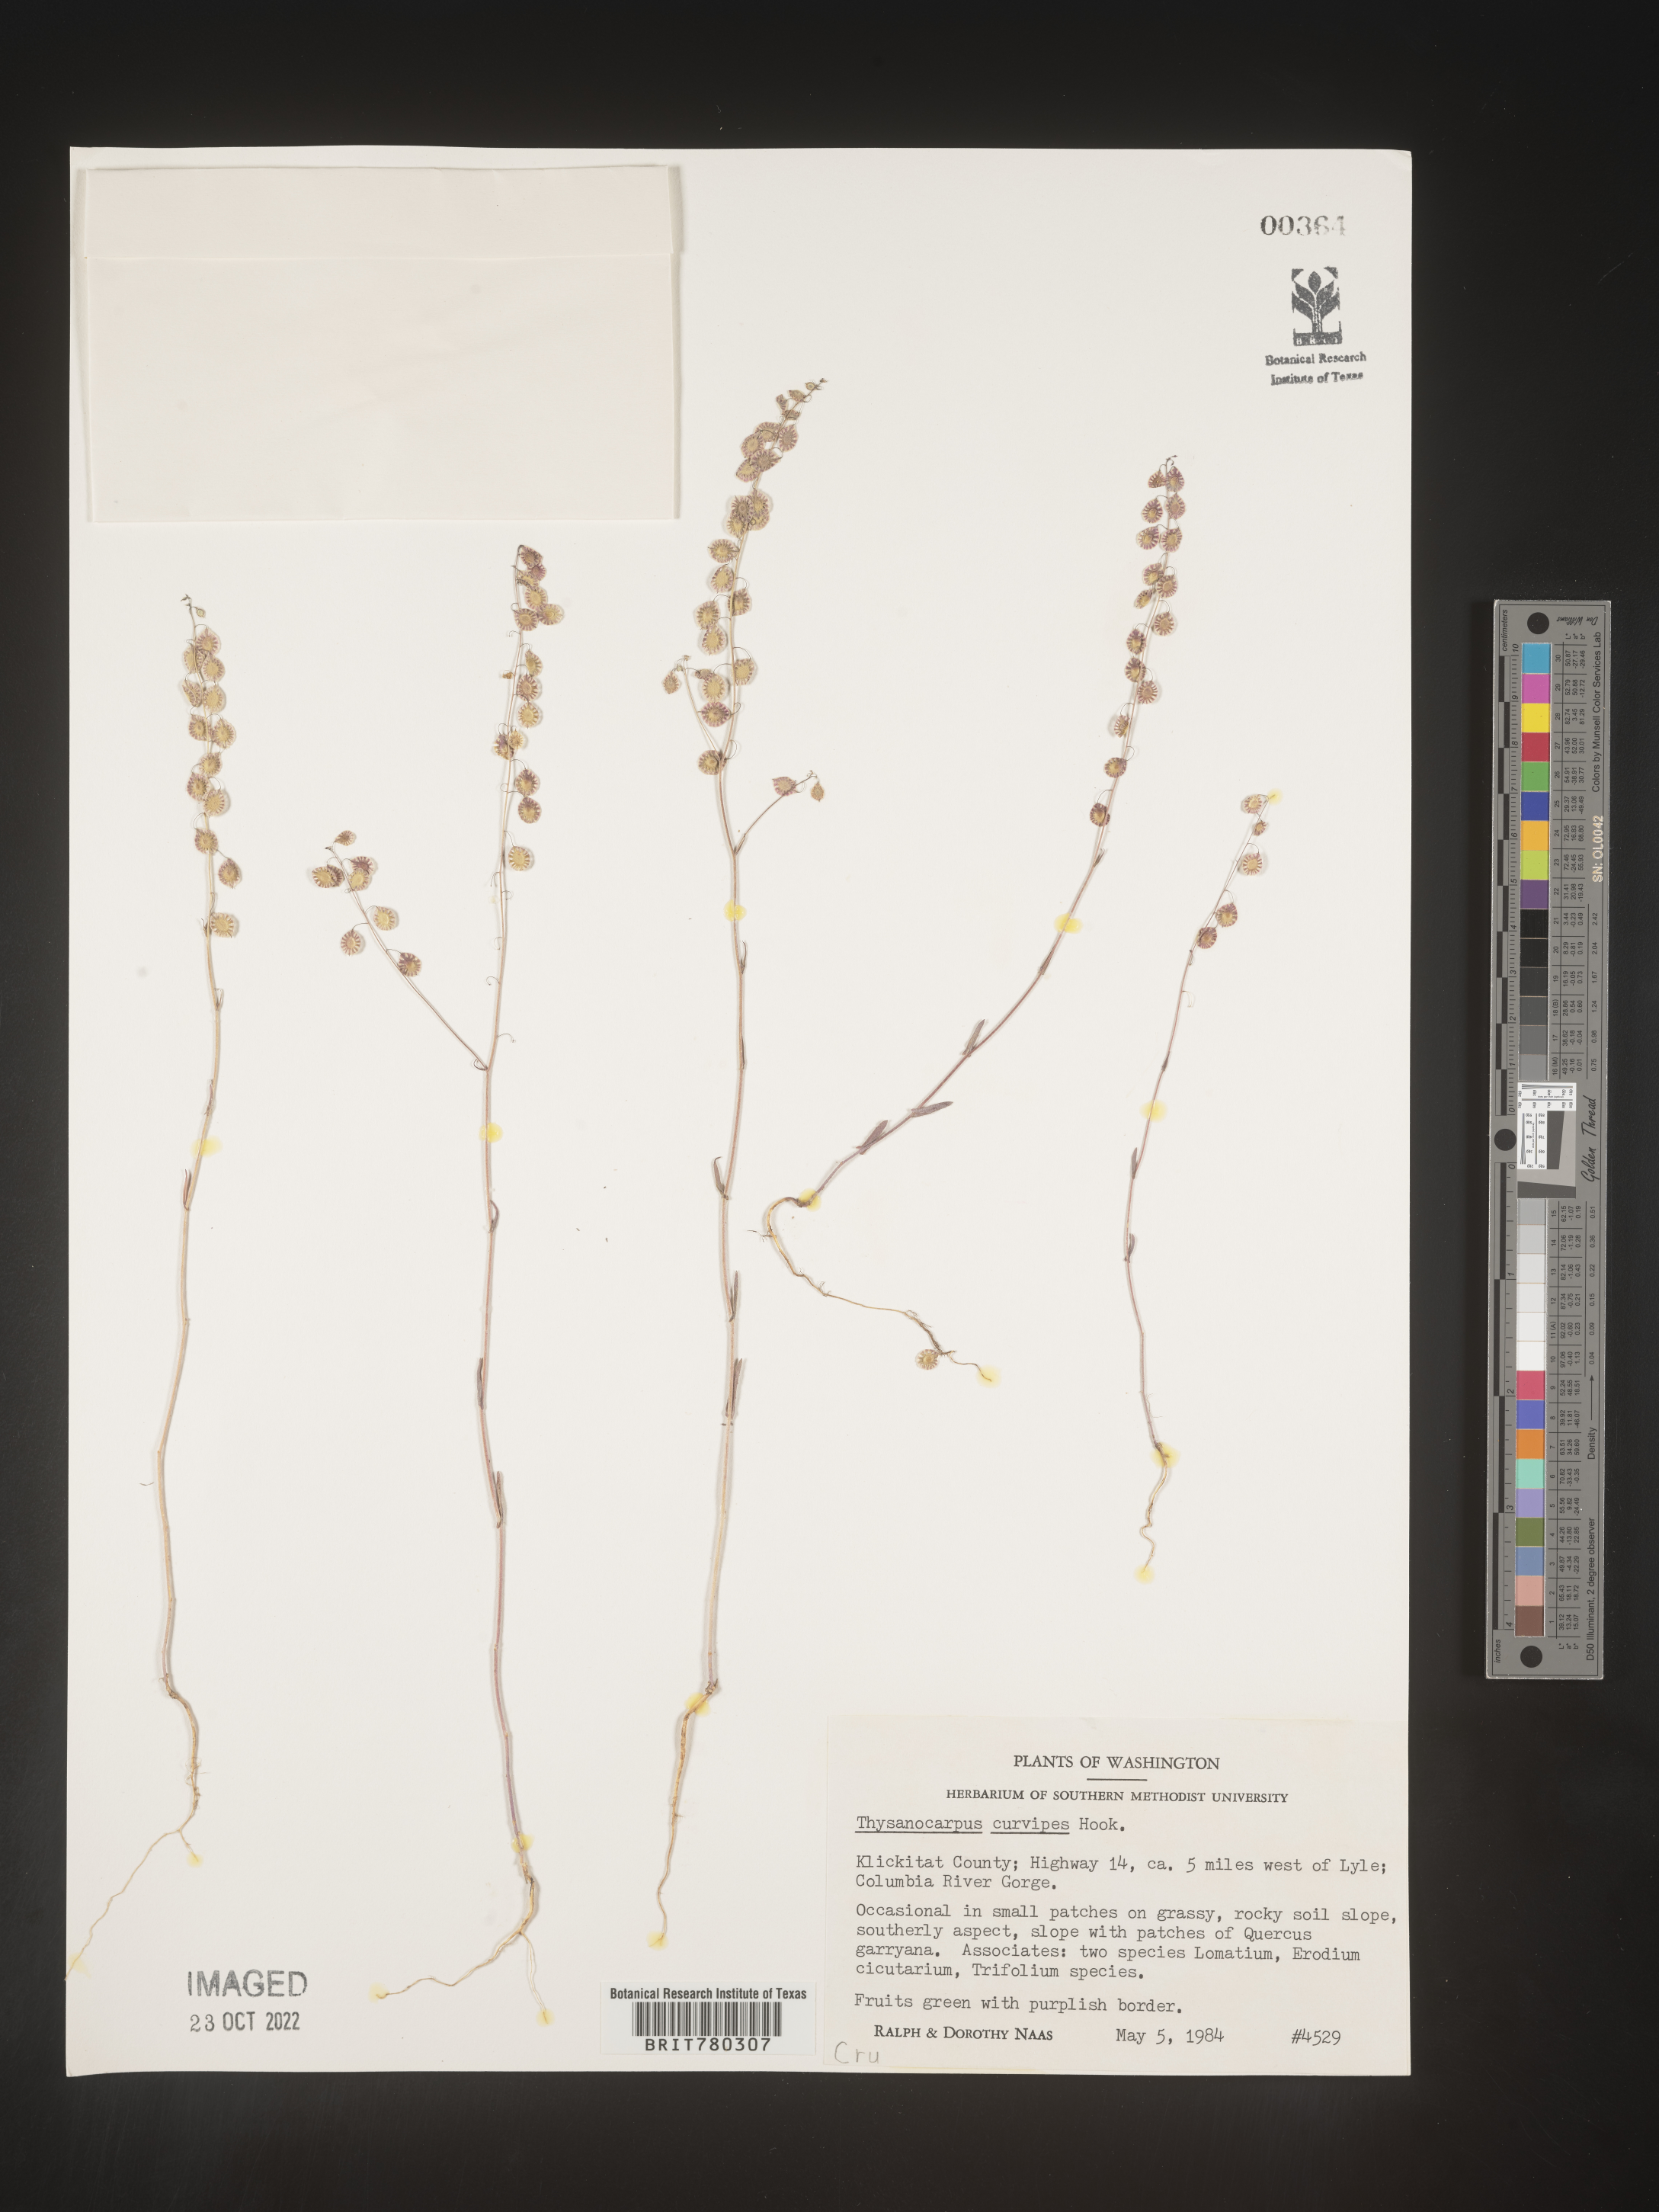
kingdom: Plantae
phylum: Tracheophyta
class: Magnoliopsida
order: Brassicales
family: Brassicaceae
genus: Thysanocarpus
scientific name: Thysanocarpus
